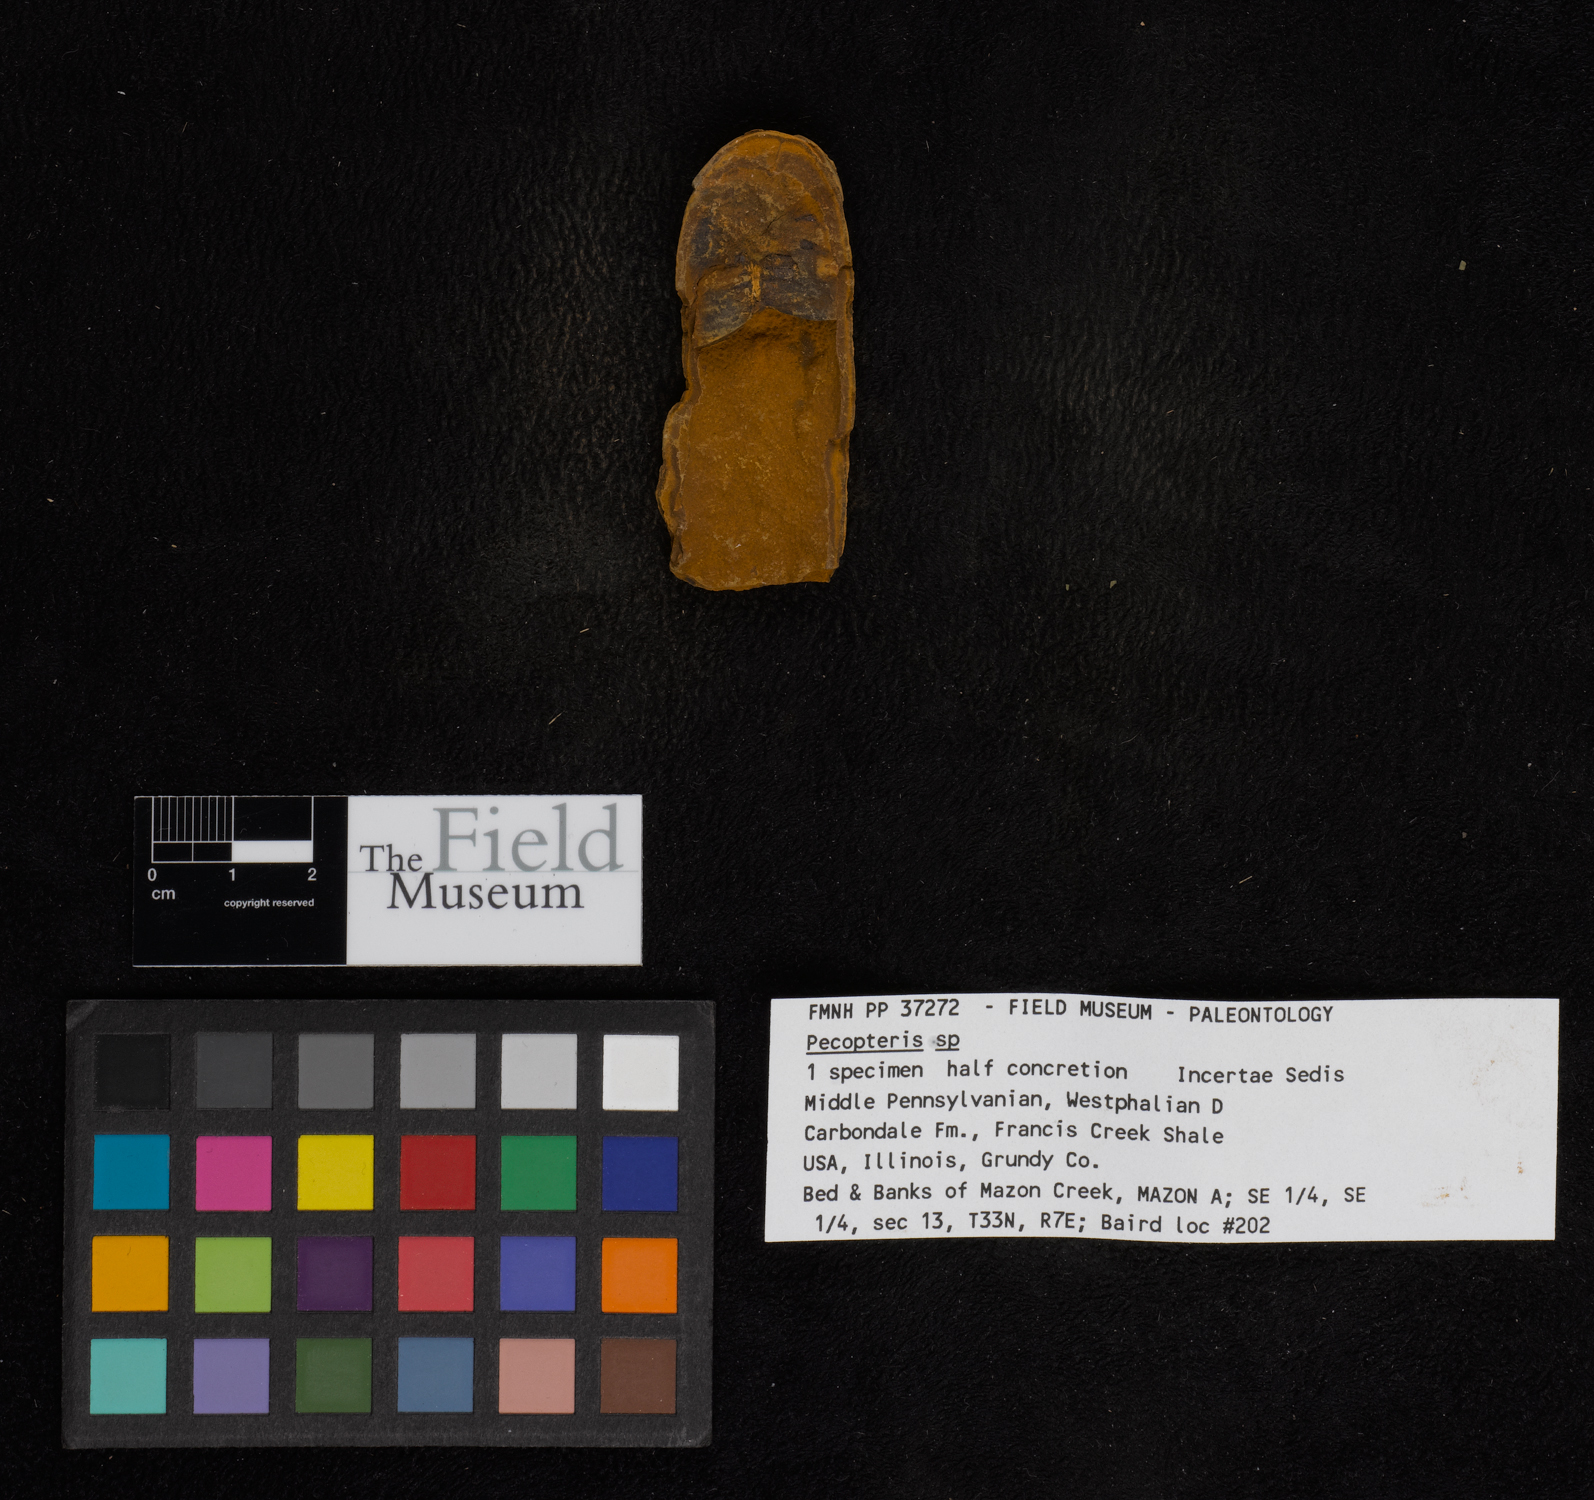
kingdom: Plantae
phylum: Tracheophyta
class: Polypodiopsida
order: Marattiales
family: Asterothecaceae
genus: Pecopteris
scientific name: Pecopteris
